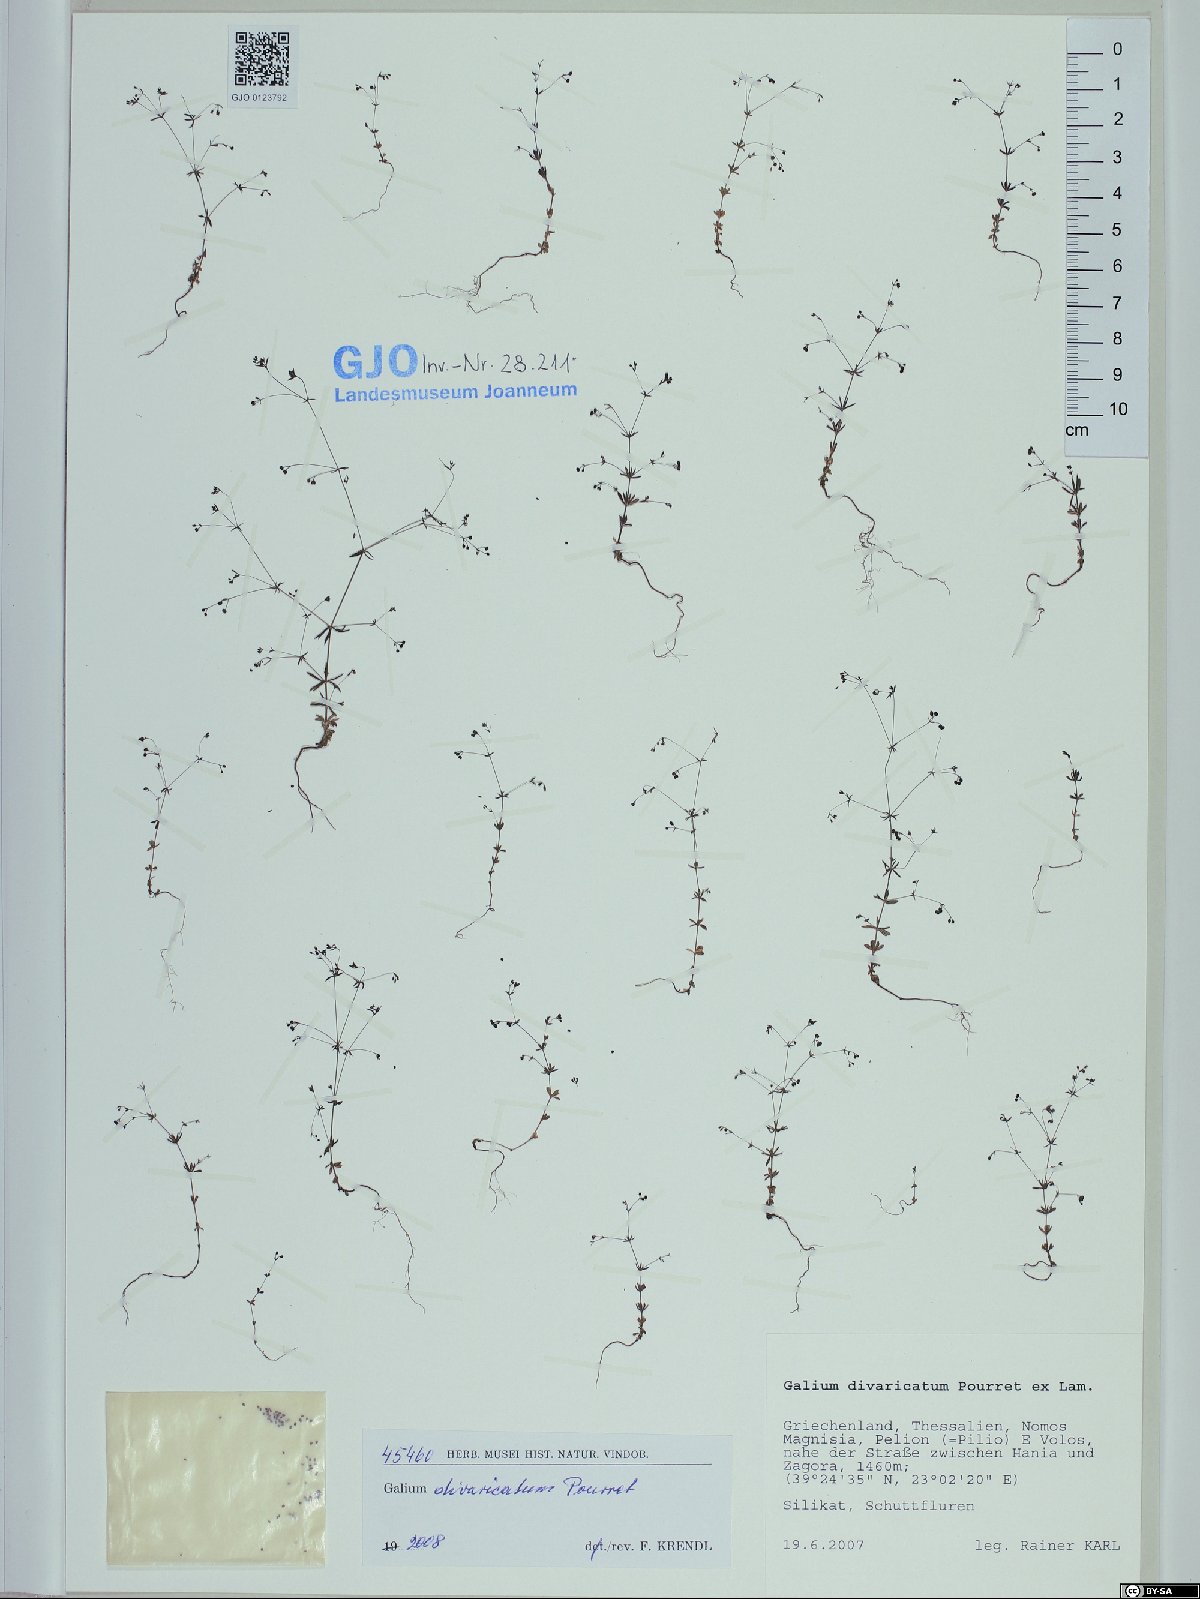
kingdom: Plantae
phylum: Tracheophyta
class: Magnoliopsida
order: Gentianales
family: Rubiaceae
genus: Galium
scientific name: Galium divaricatum
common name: Lamarck's bedstraw
